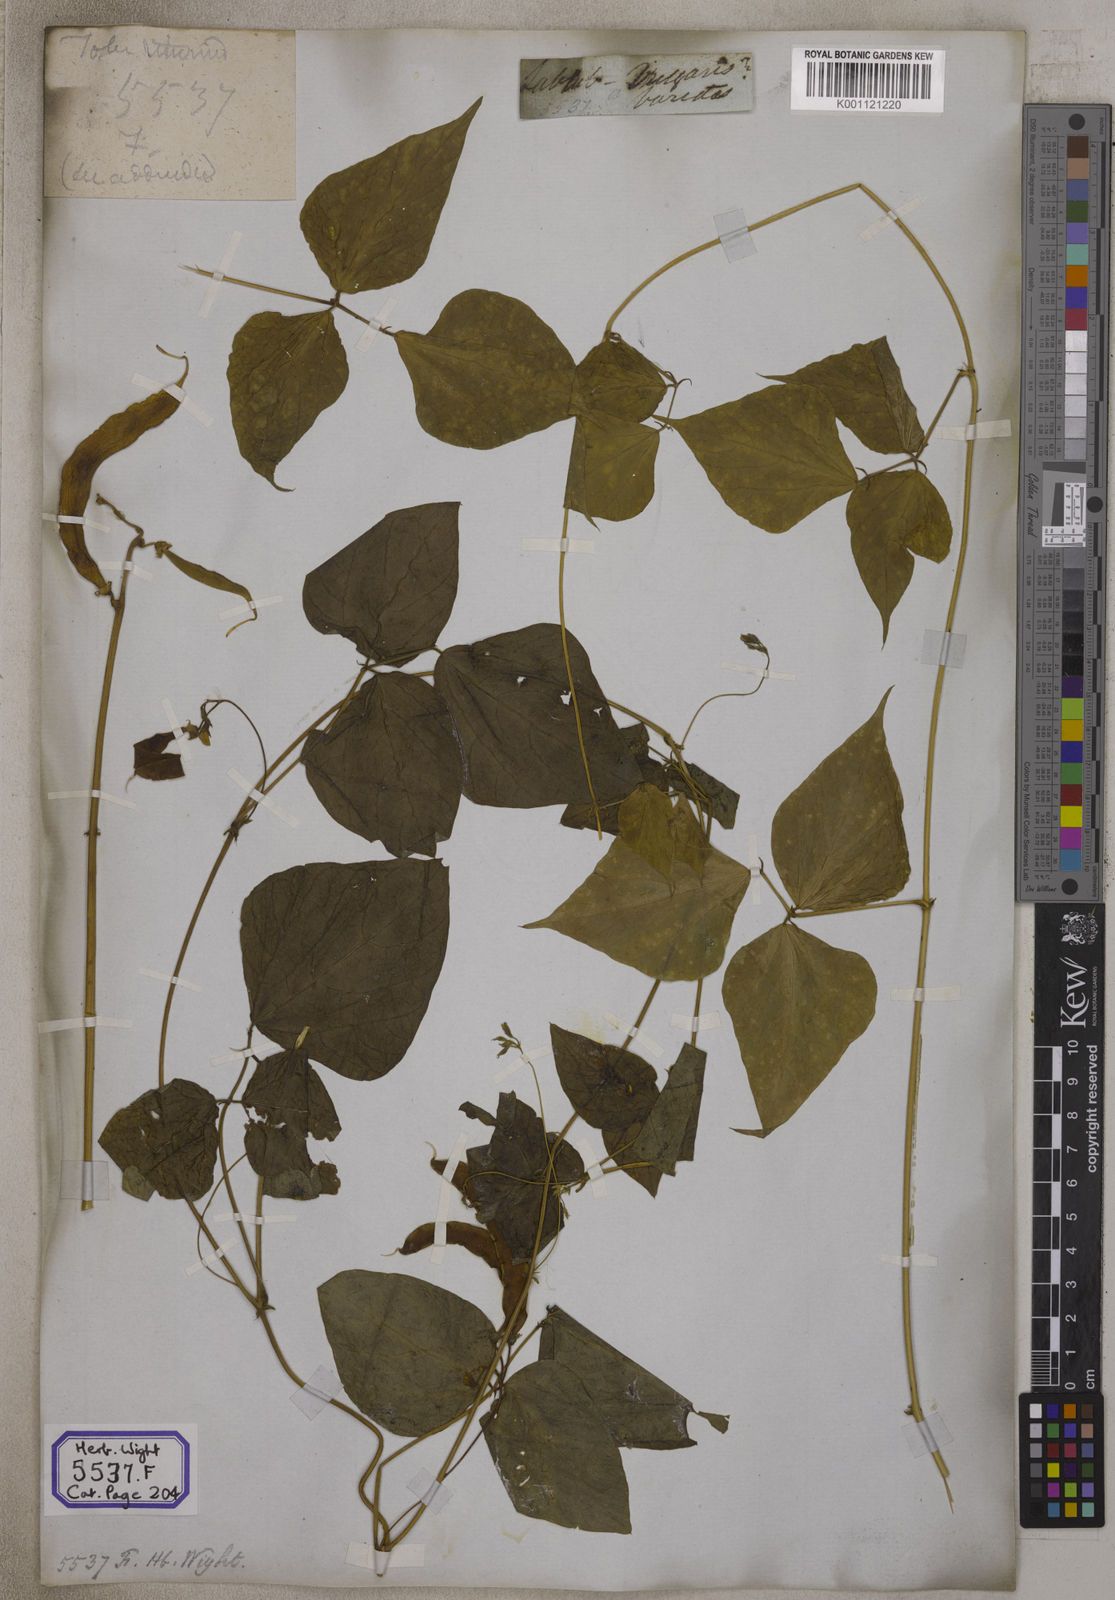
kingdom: Plantae
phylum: Tracheophyta
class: Magnoliopsida
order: Fabales
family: Fabaceae
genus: Lablab
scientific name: Lablab purpureus
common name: Lablab-bean
